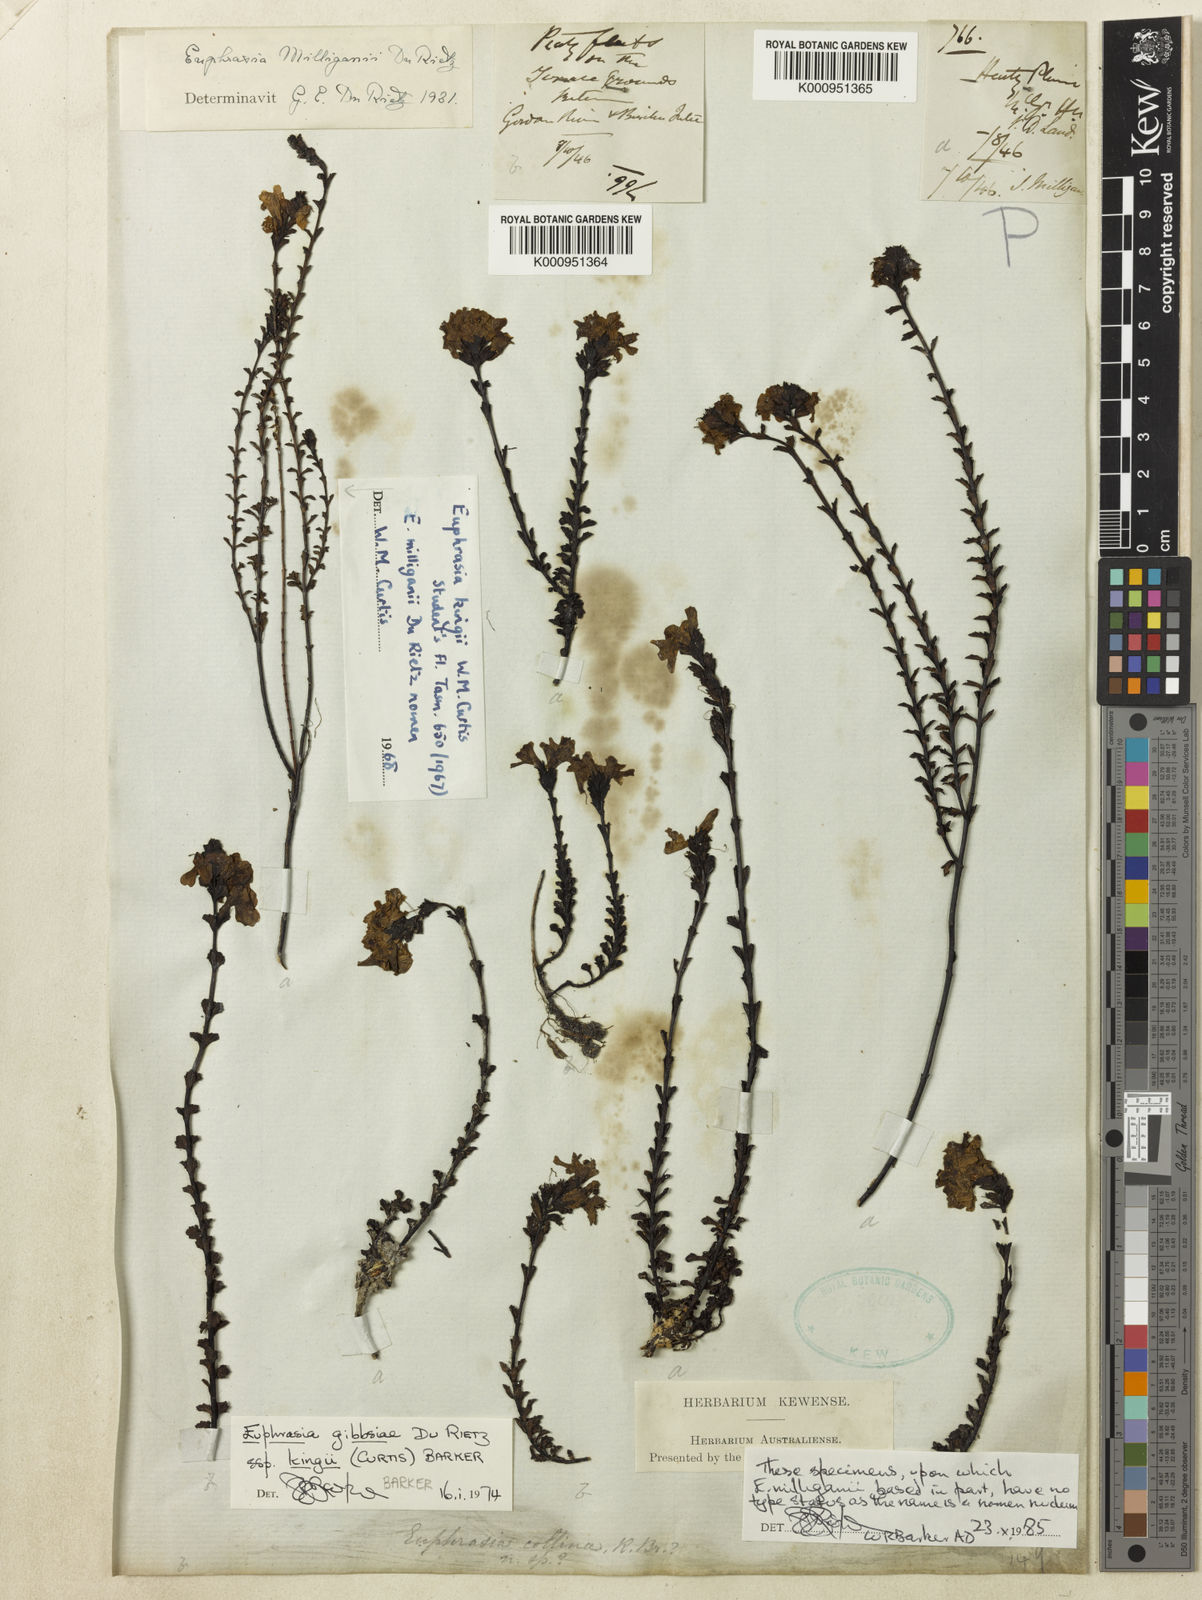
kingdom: Plantae
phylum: Tracheophyta
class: Magnoliopsida
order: Lamiales
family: Orobanchaceae
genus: Euphrasia
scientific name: Euphrasia gibbsiae
